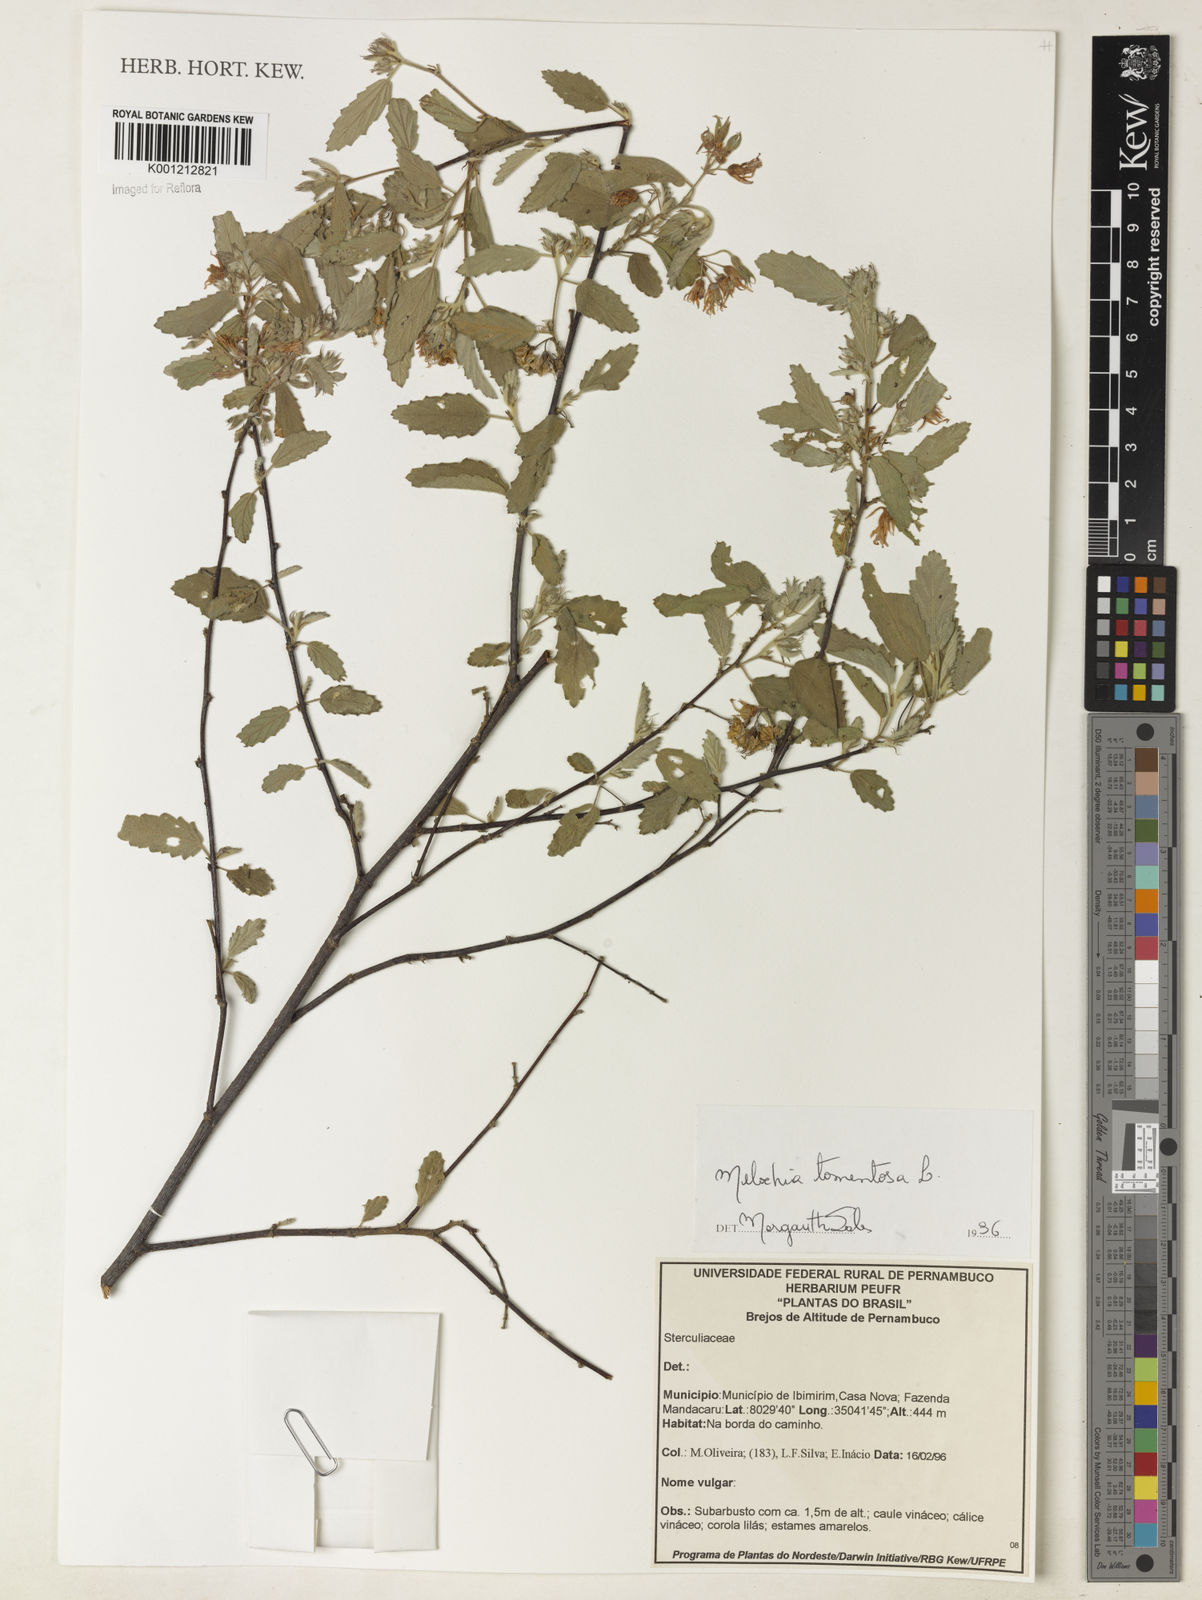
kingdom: Plantae
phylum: Tracheophyta
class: Magnoliopsida
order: Malvales
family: Malvaceae
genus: Melochia
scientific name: Melochia tomentosa
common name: Black torch
